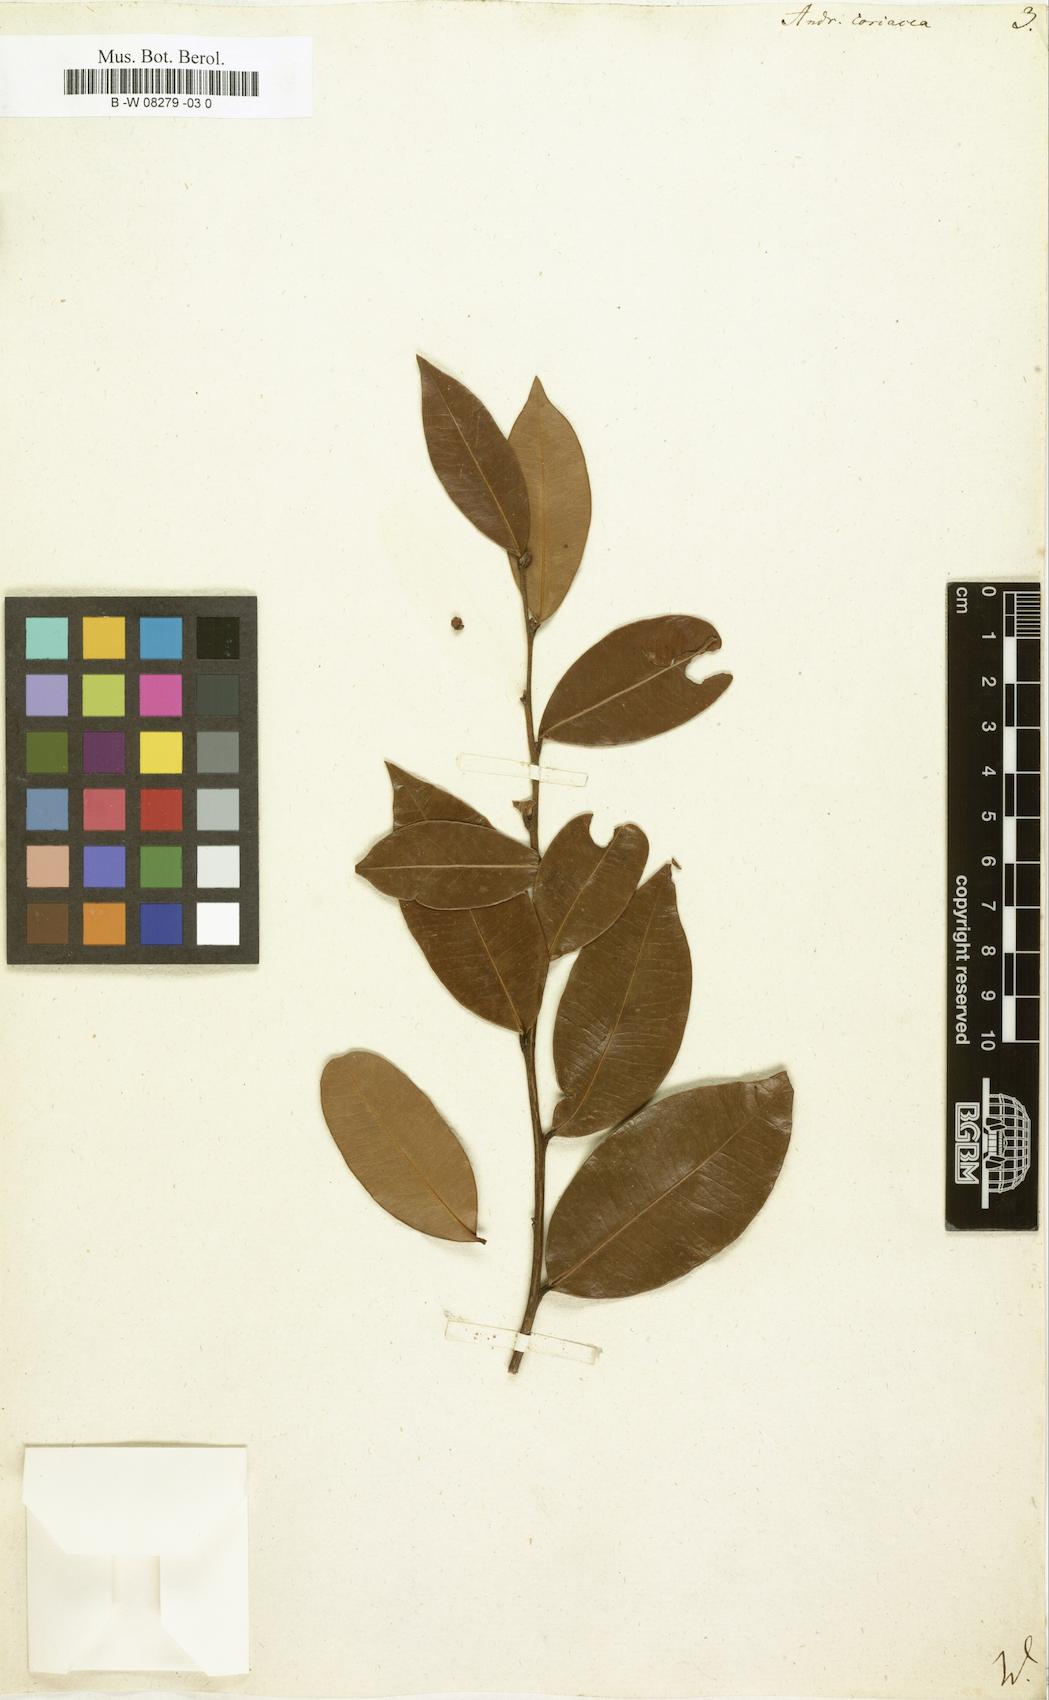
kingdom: Plantae
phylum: Tracheophyta
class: Magnoliopsida
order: Ericales
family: Ericaceae
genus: Lyonia
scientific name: Lyonia lucida
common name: Fetterbush
